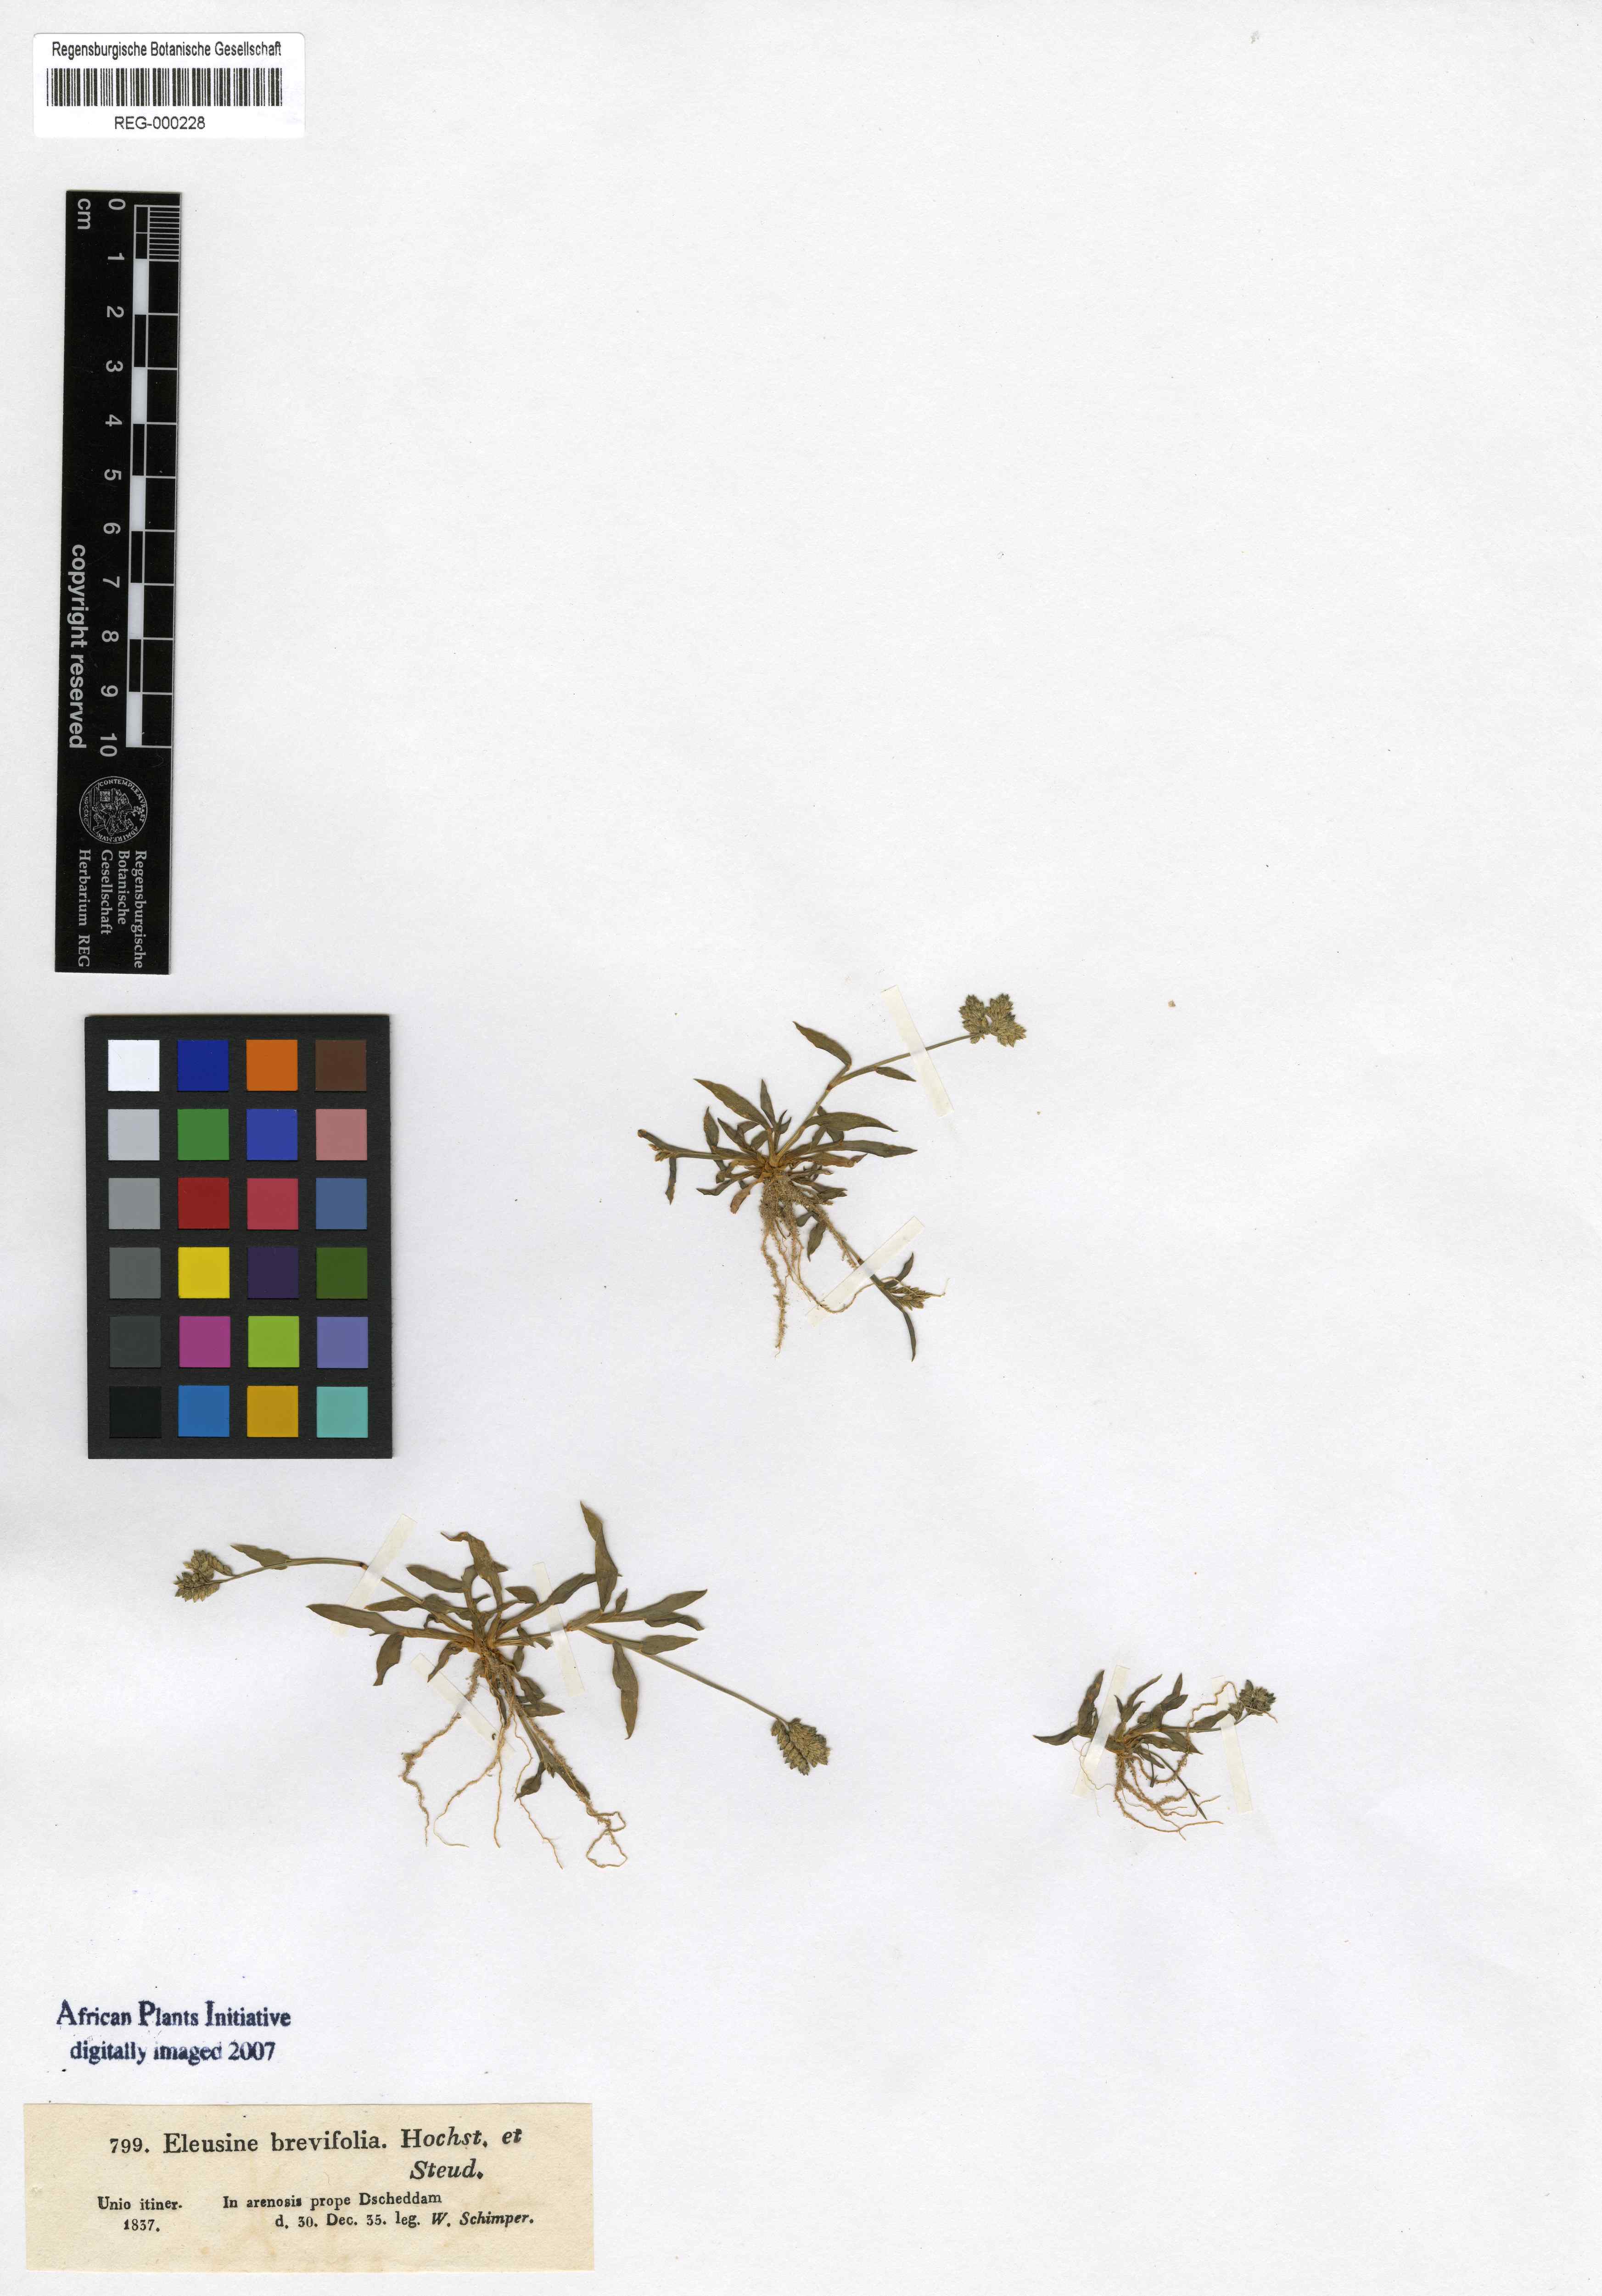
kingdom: Plantae
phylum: Tracheophyta
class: Liliopsida
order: Poales
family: Poaceae
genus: Coelachyrum
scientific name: Coelachyrum brevifolium
